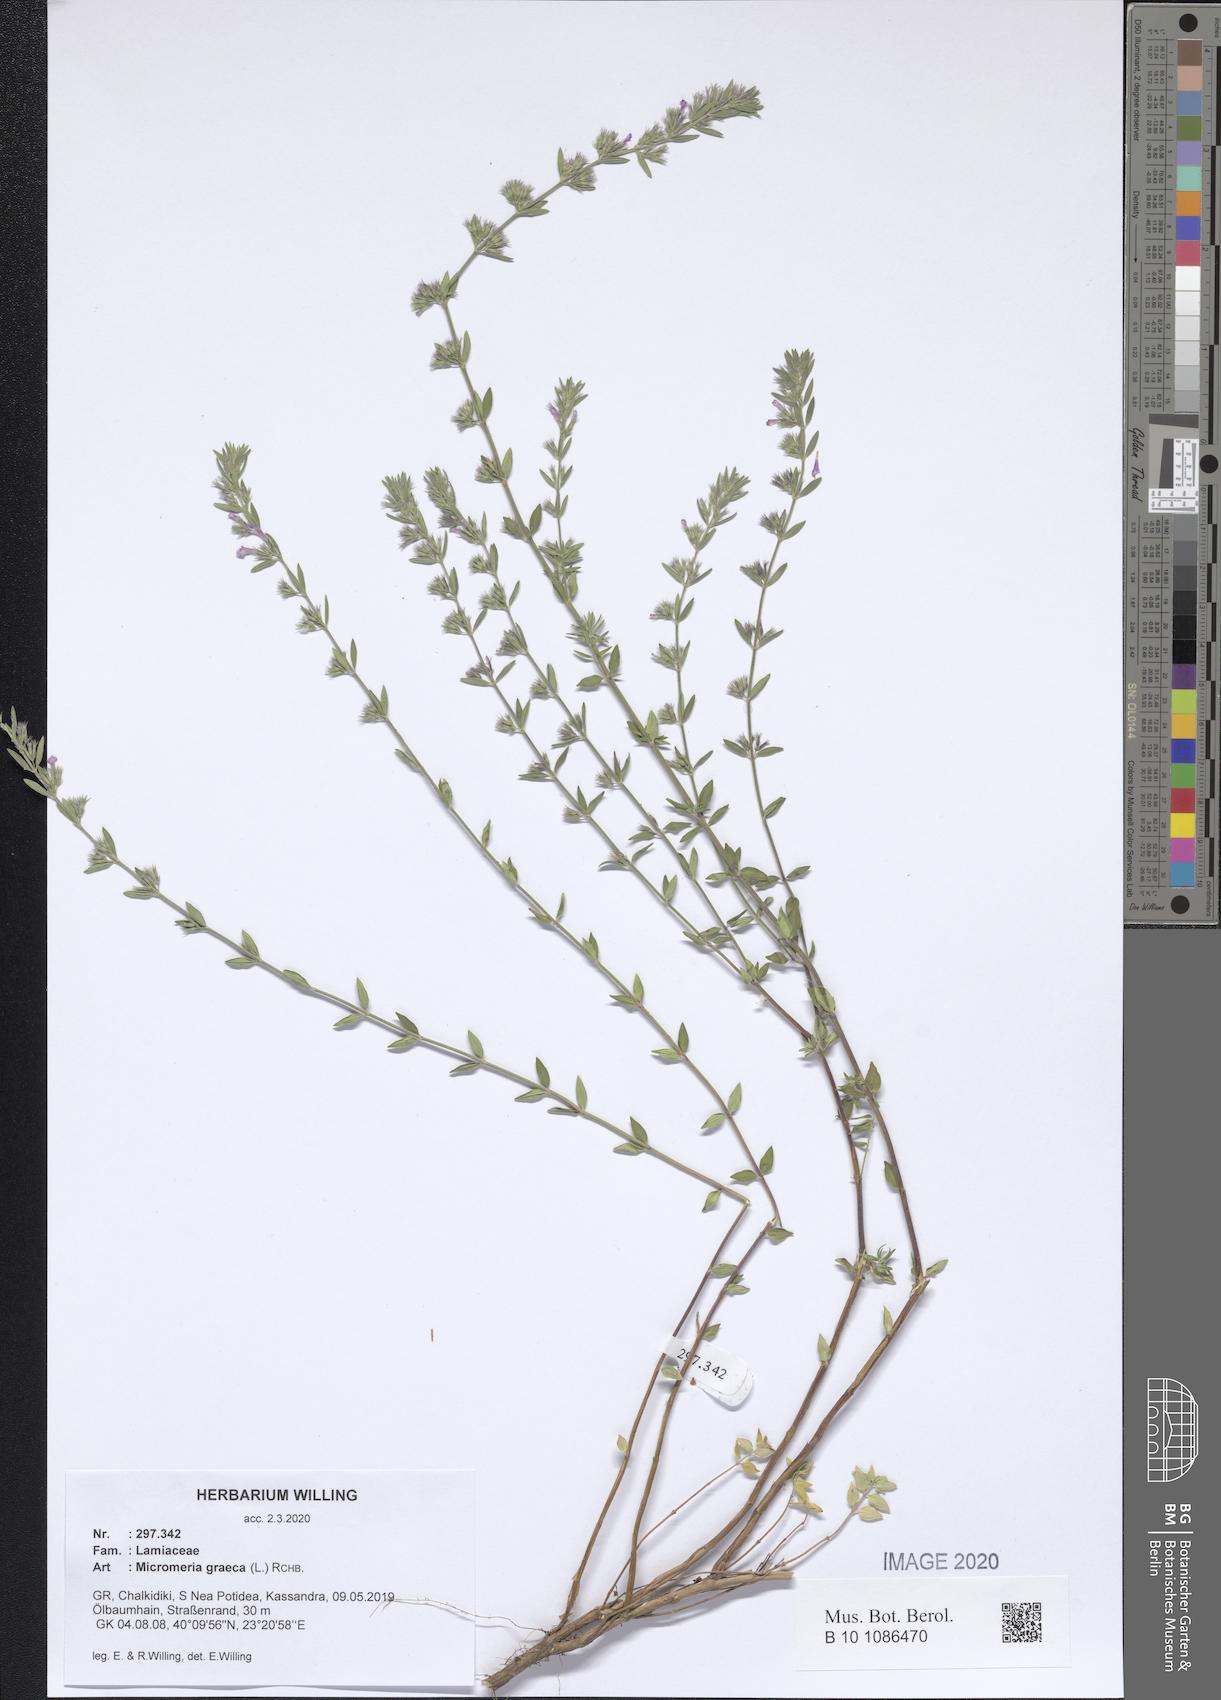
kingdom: Plantae
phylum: Tracheophyta
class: Magnoliopsida
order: Lamiales
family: Lamiaceae
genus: Micromeria
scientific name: Micromeria graeca
